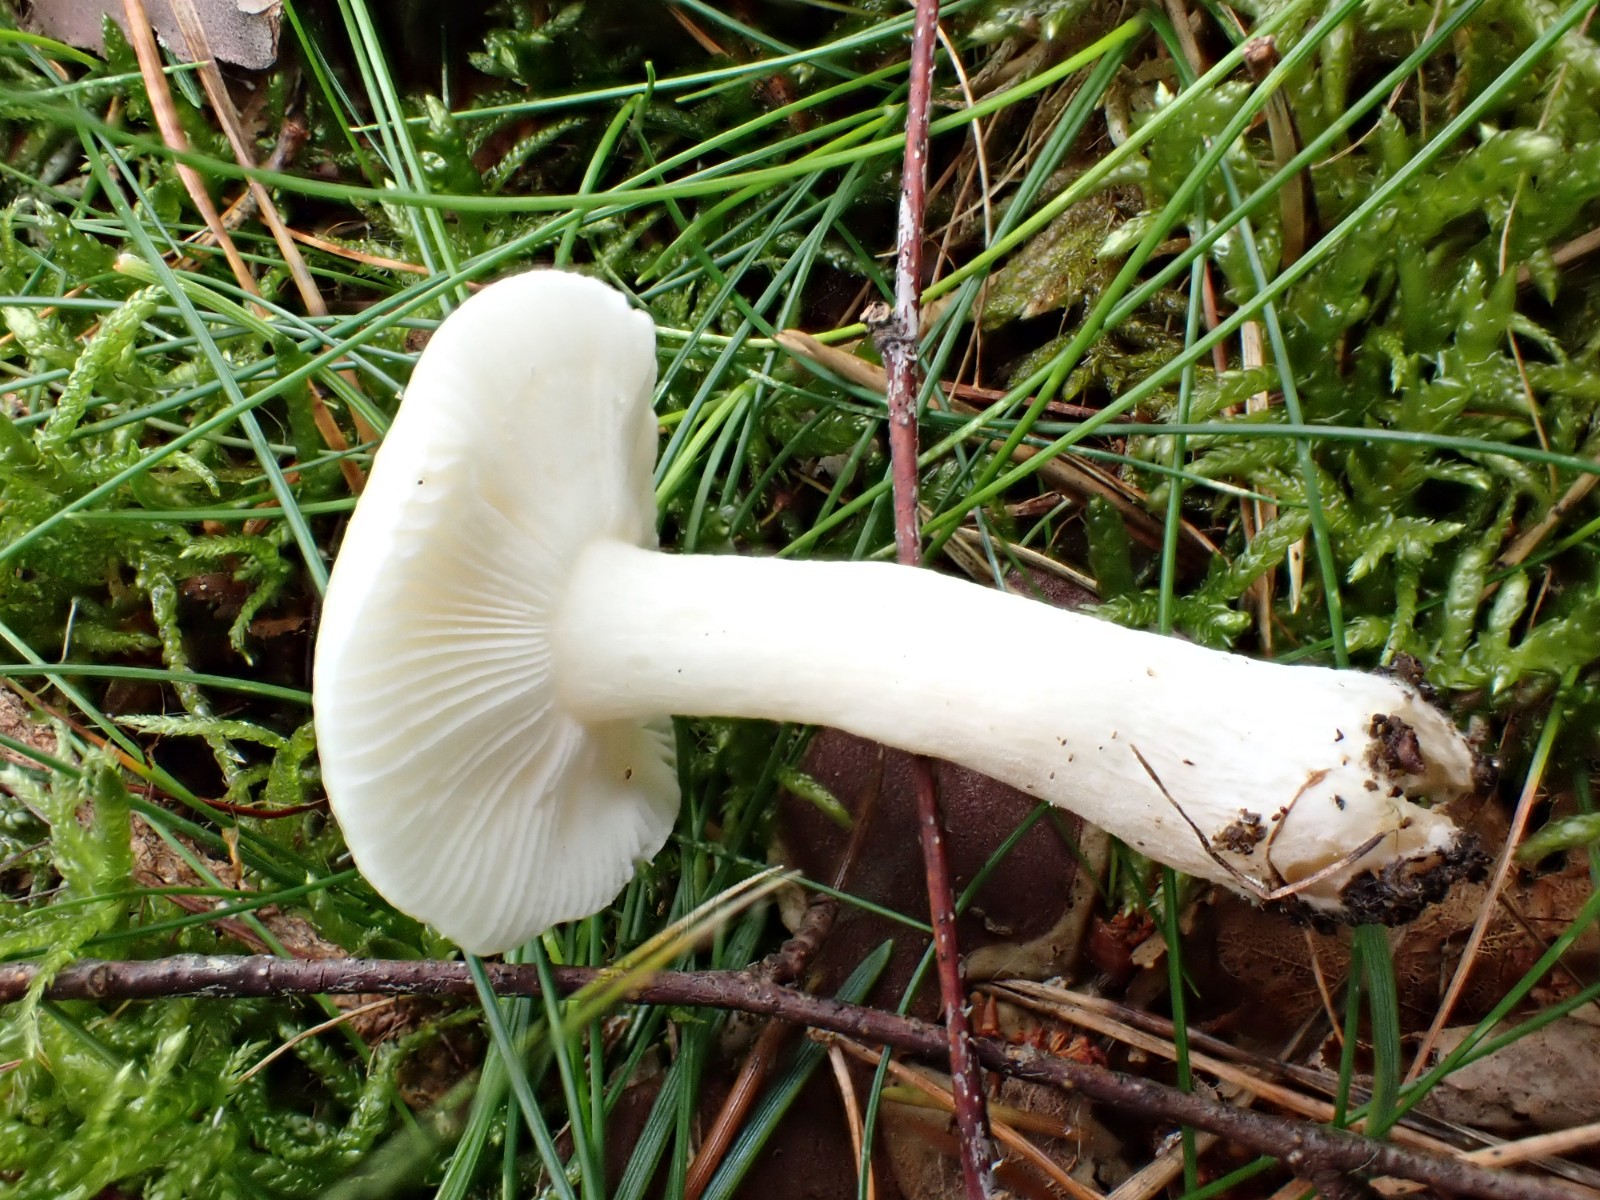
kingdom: Fungi
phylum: Basidiomycota
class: Agaricomycetes
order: Russulales
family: Russulaceae
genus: Russula
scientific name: Russula betularum
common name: bleg gift-skørhat
